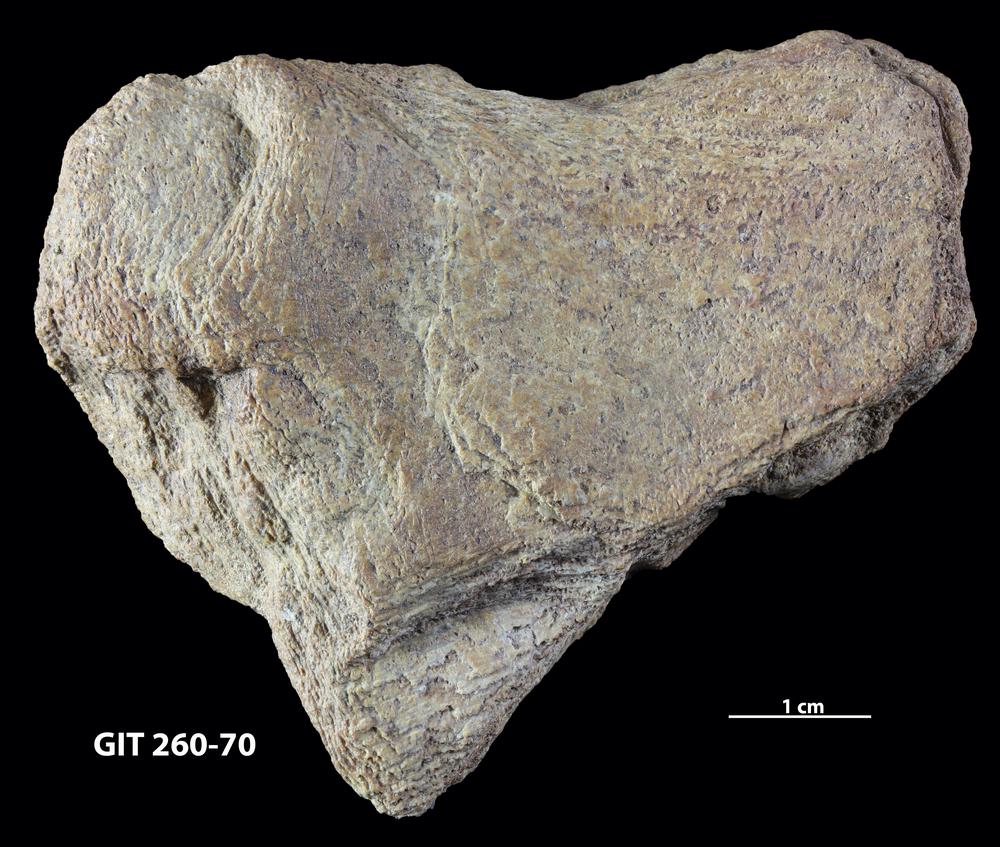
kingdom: Animalia
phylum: Chordata
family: Homostiidae
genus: Homostius
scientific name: Homostius
